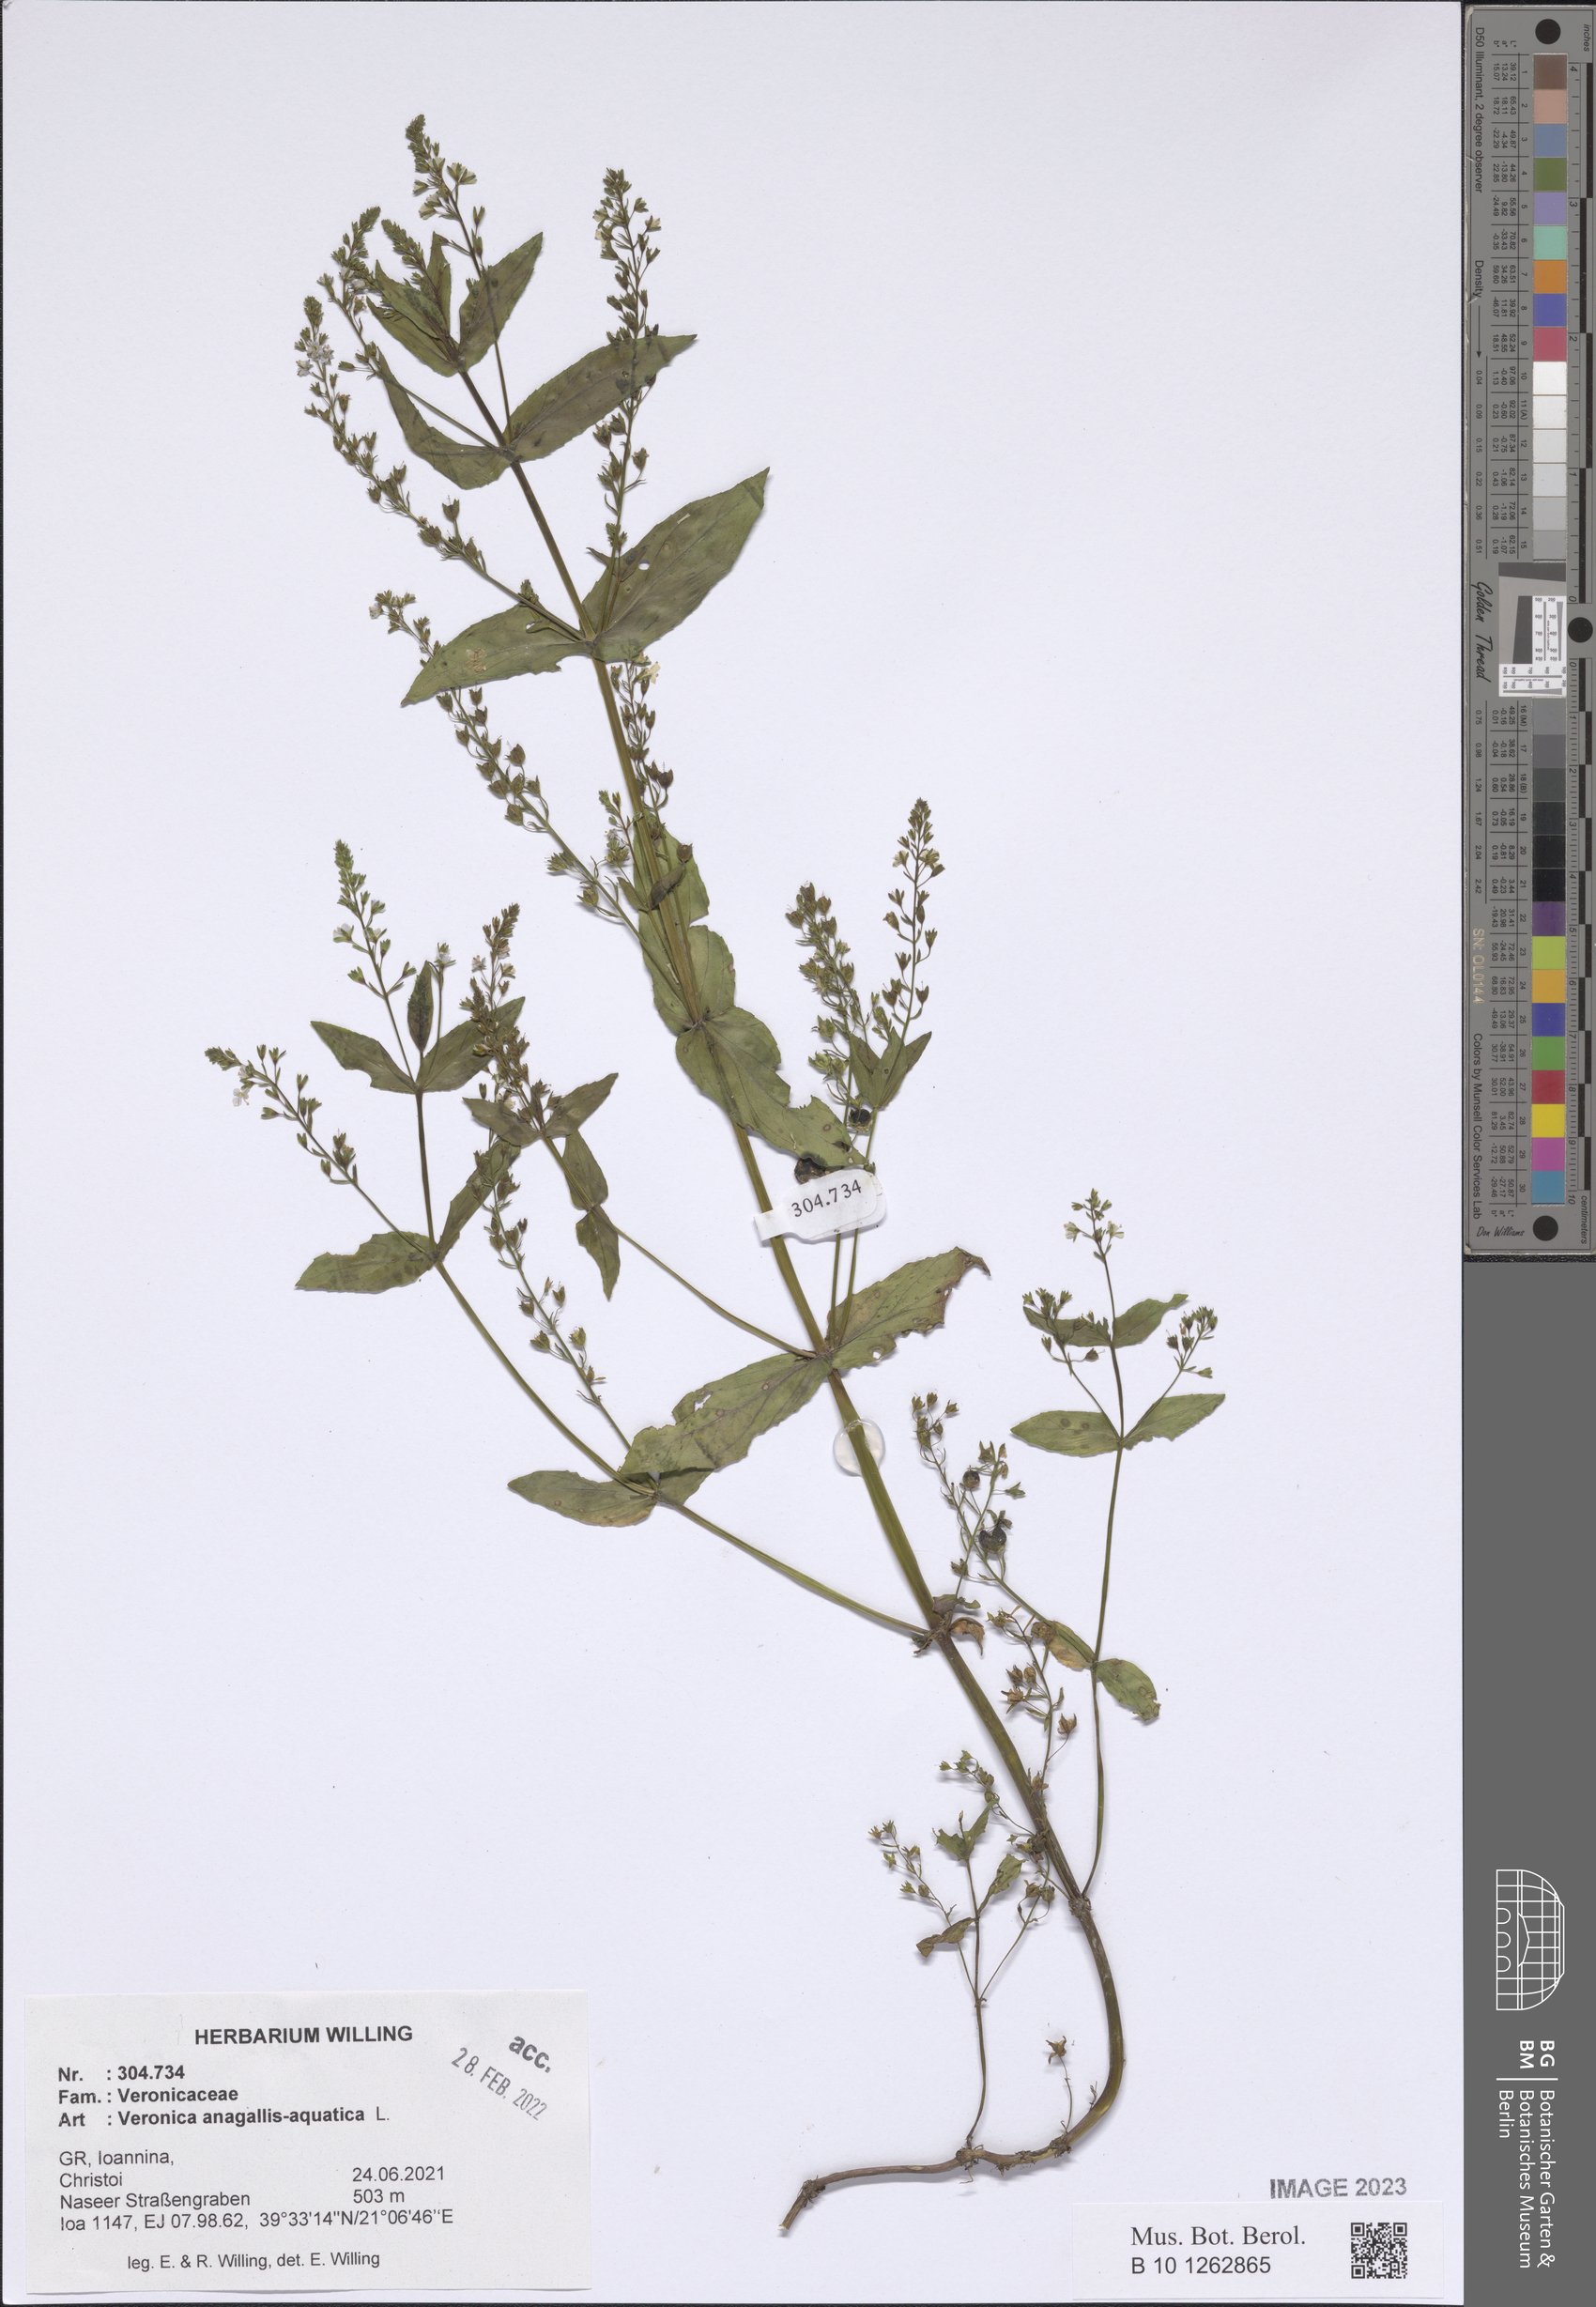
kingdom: Plantae
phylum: Tracheophyta
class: Magnoliopsida
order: Lamiales
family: Plantaginaceae
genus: Veronica
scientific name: Veronica anagallis-aquatica
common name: Water speedwell
